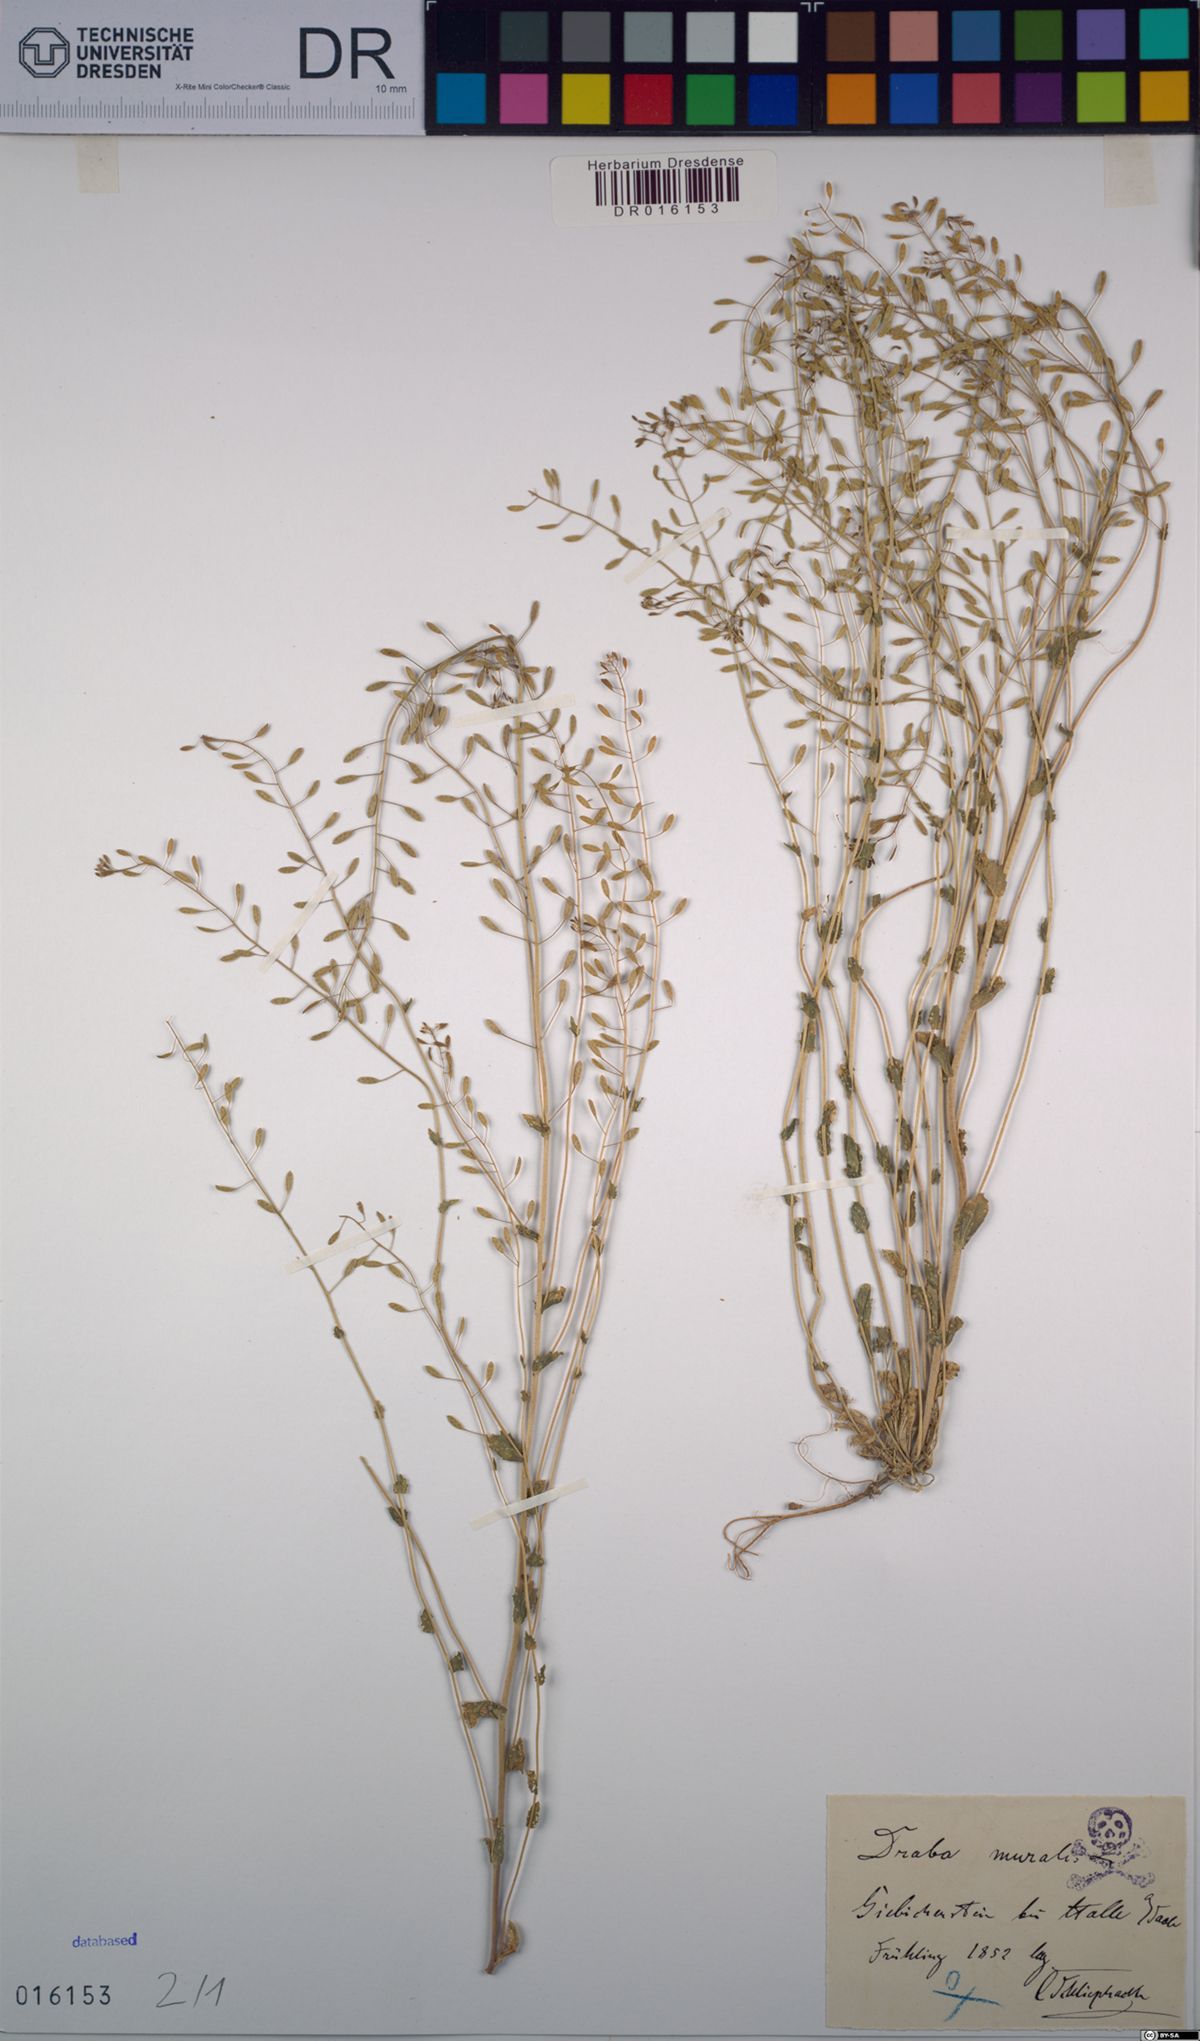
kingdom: Plantae
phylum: Tracheophyta
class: Magnoliopsida
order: Brassicales
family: Brassicaceae
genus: Drabella
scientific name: Drabella muralis
